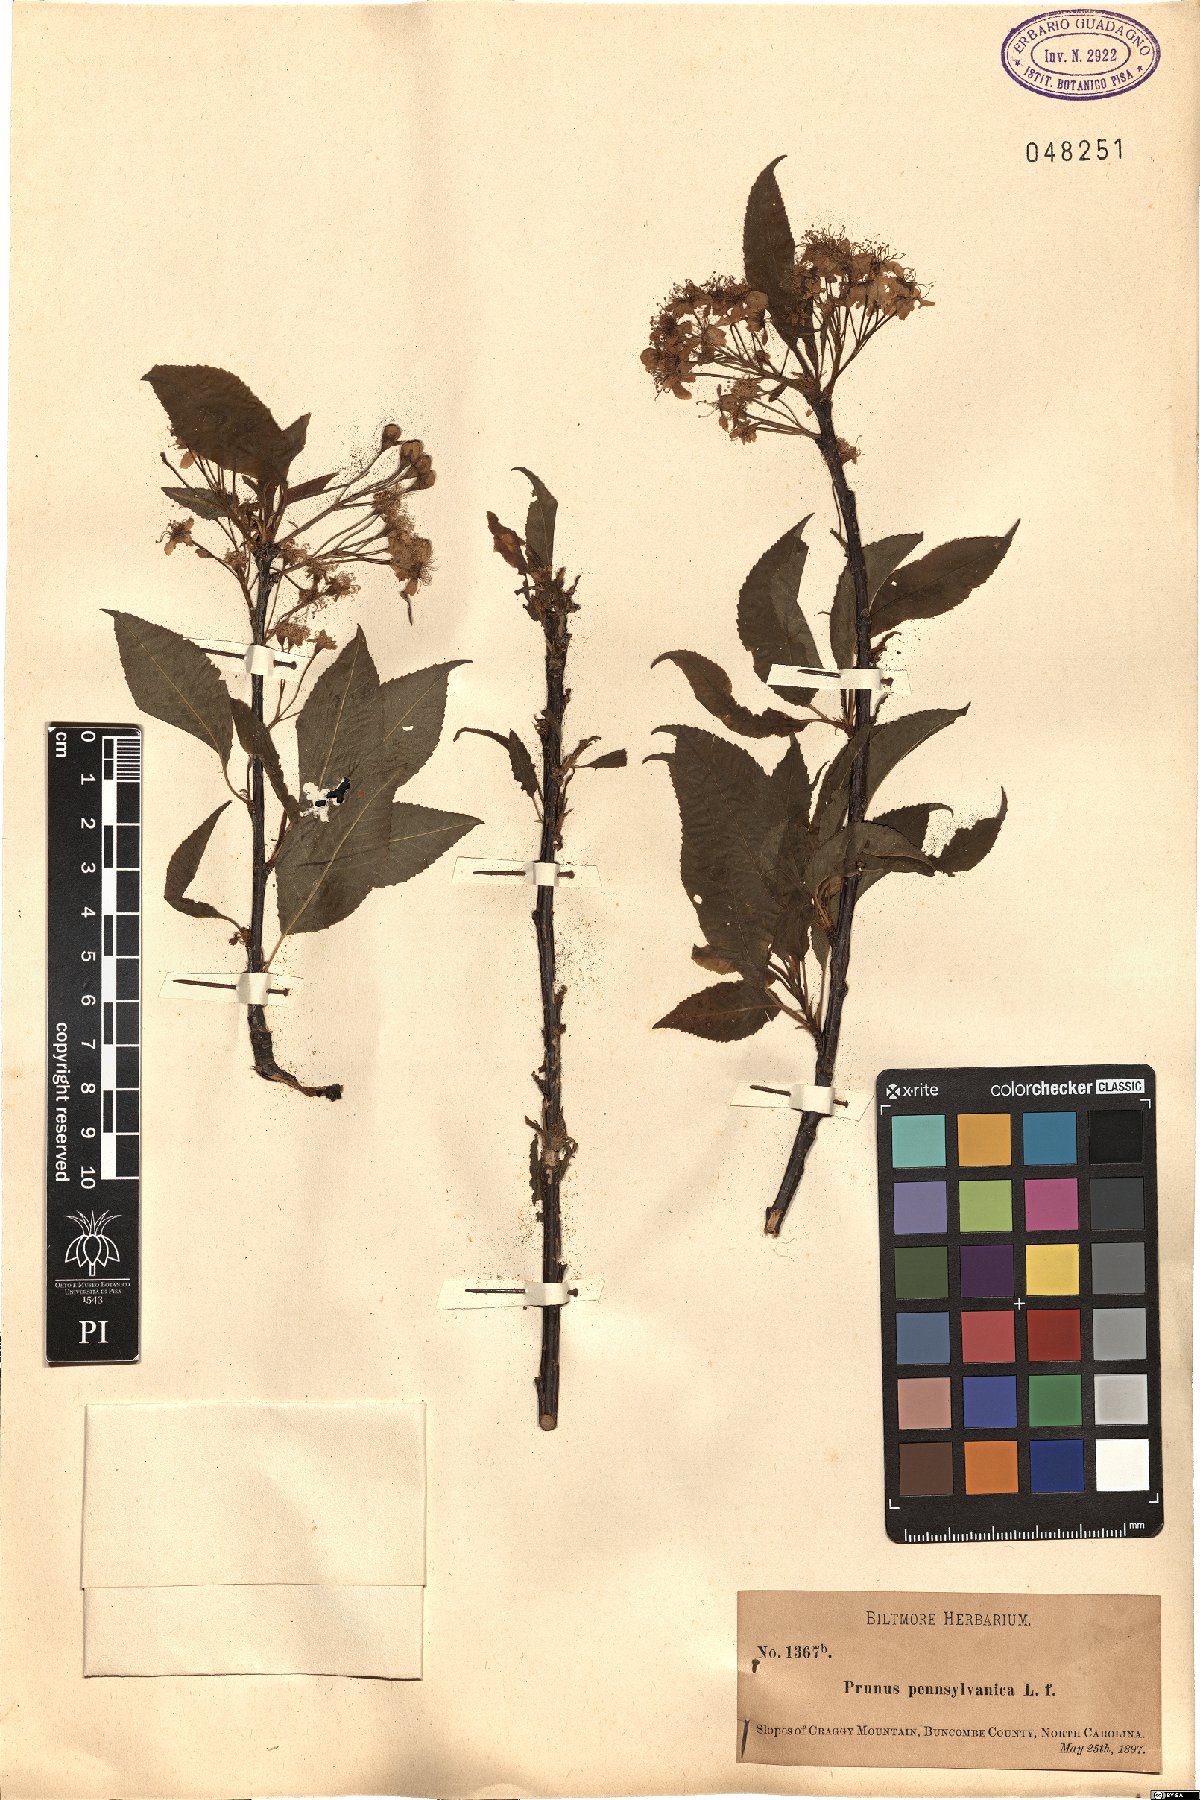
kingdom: Plantae
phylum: Tracheophyta
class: Magnoliopsida
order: Rosales
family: Rosaceae
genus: Prunus
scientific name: Prunus pensylvanica
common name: Pin cherry
